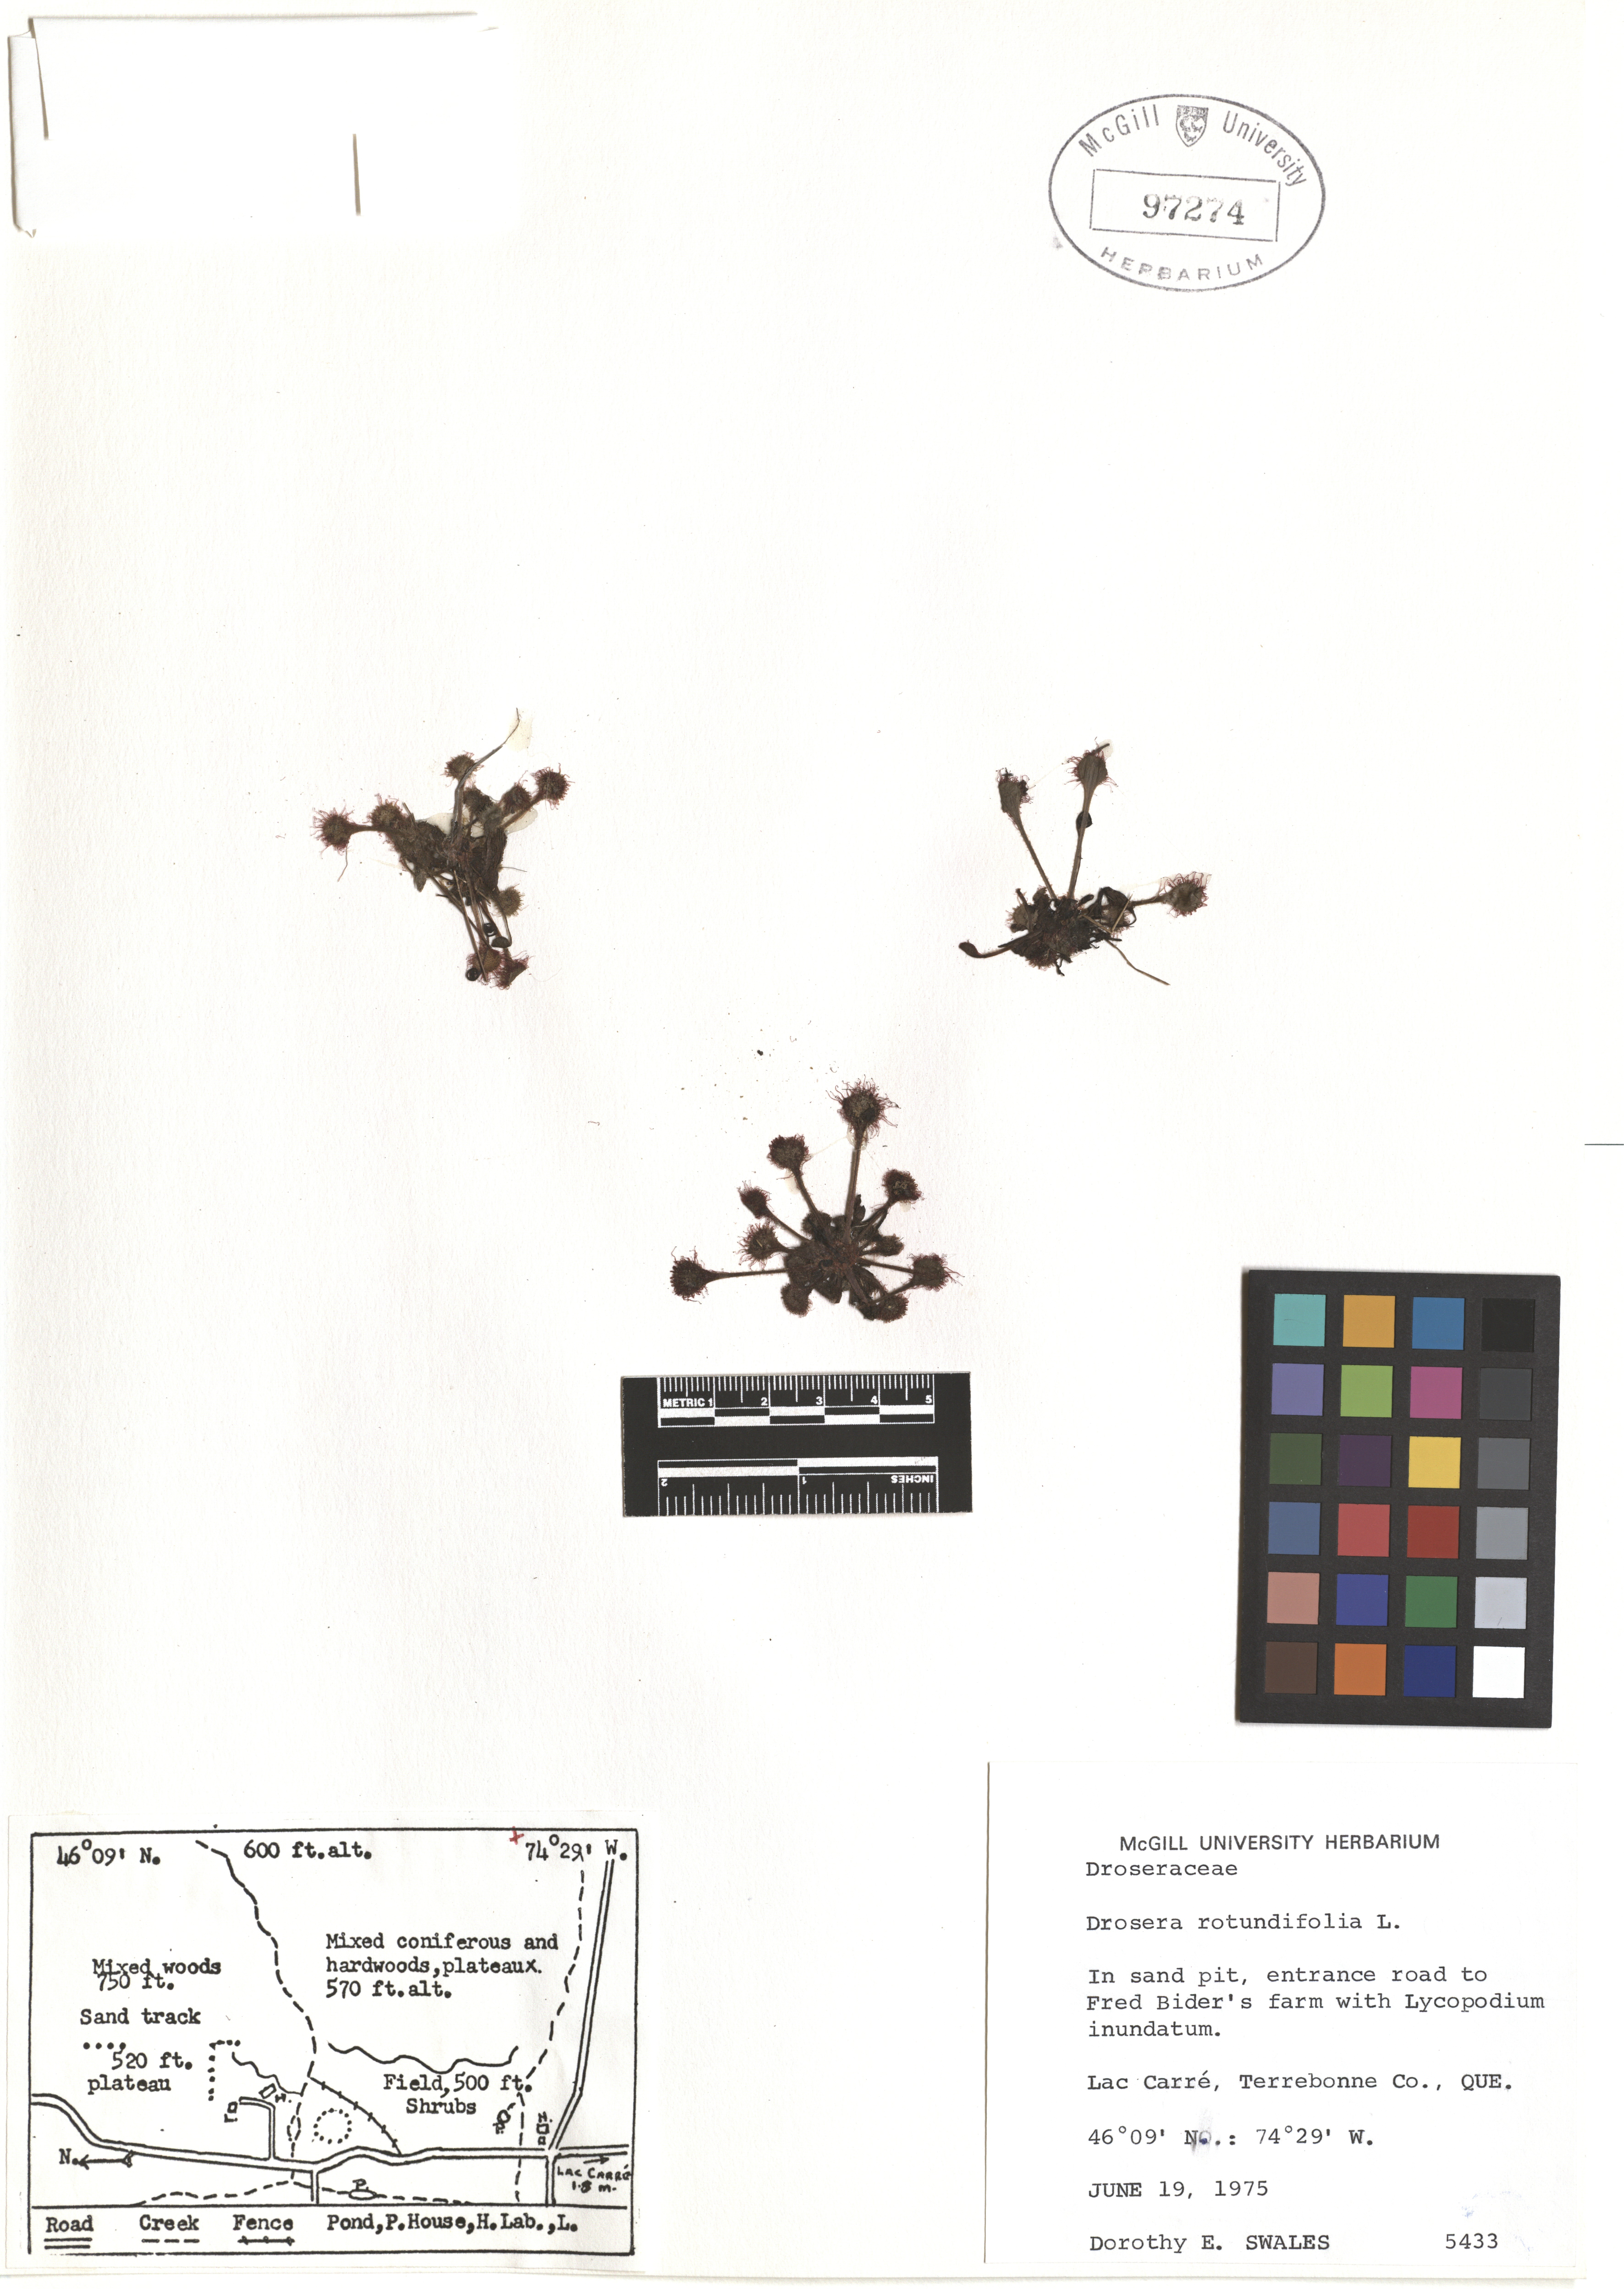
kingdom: Plantae
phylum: Tracheophyta
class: Magnoliopsida
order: Caryophyllales
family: Droseraceae
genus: Drosera
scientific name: Drosera rotundifolia
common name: Round-leaved sundew
